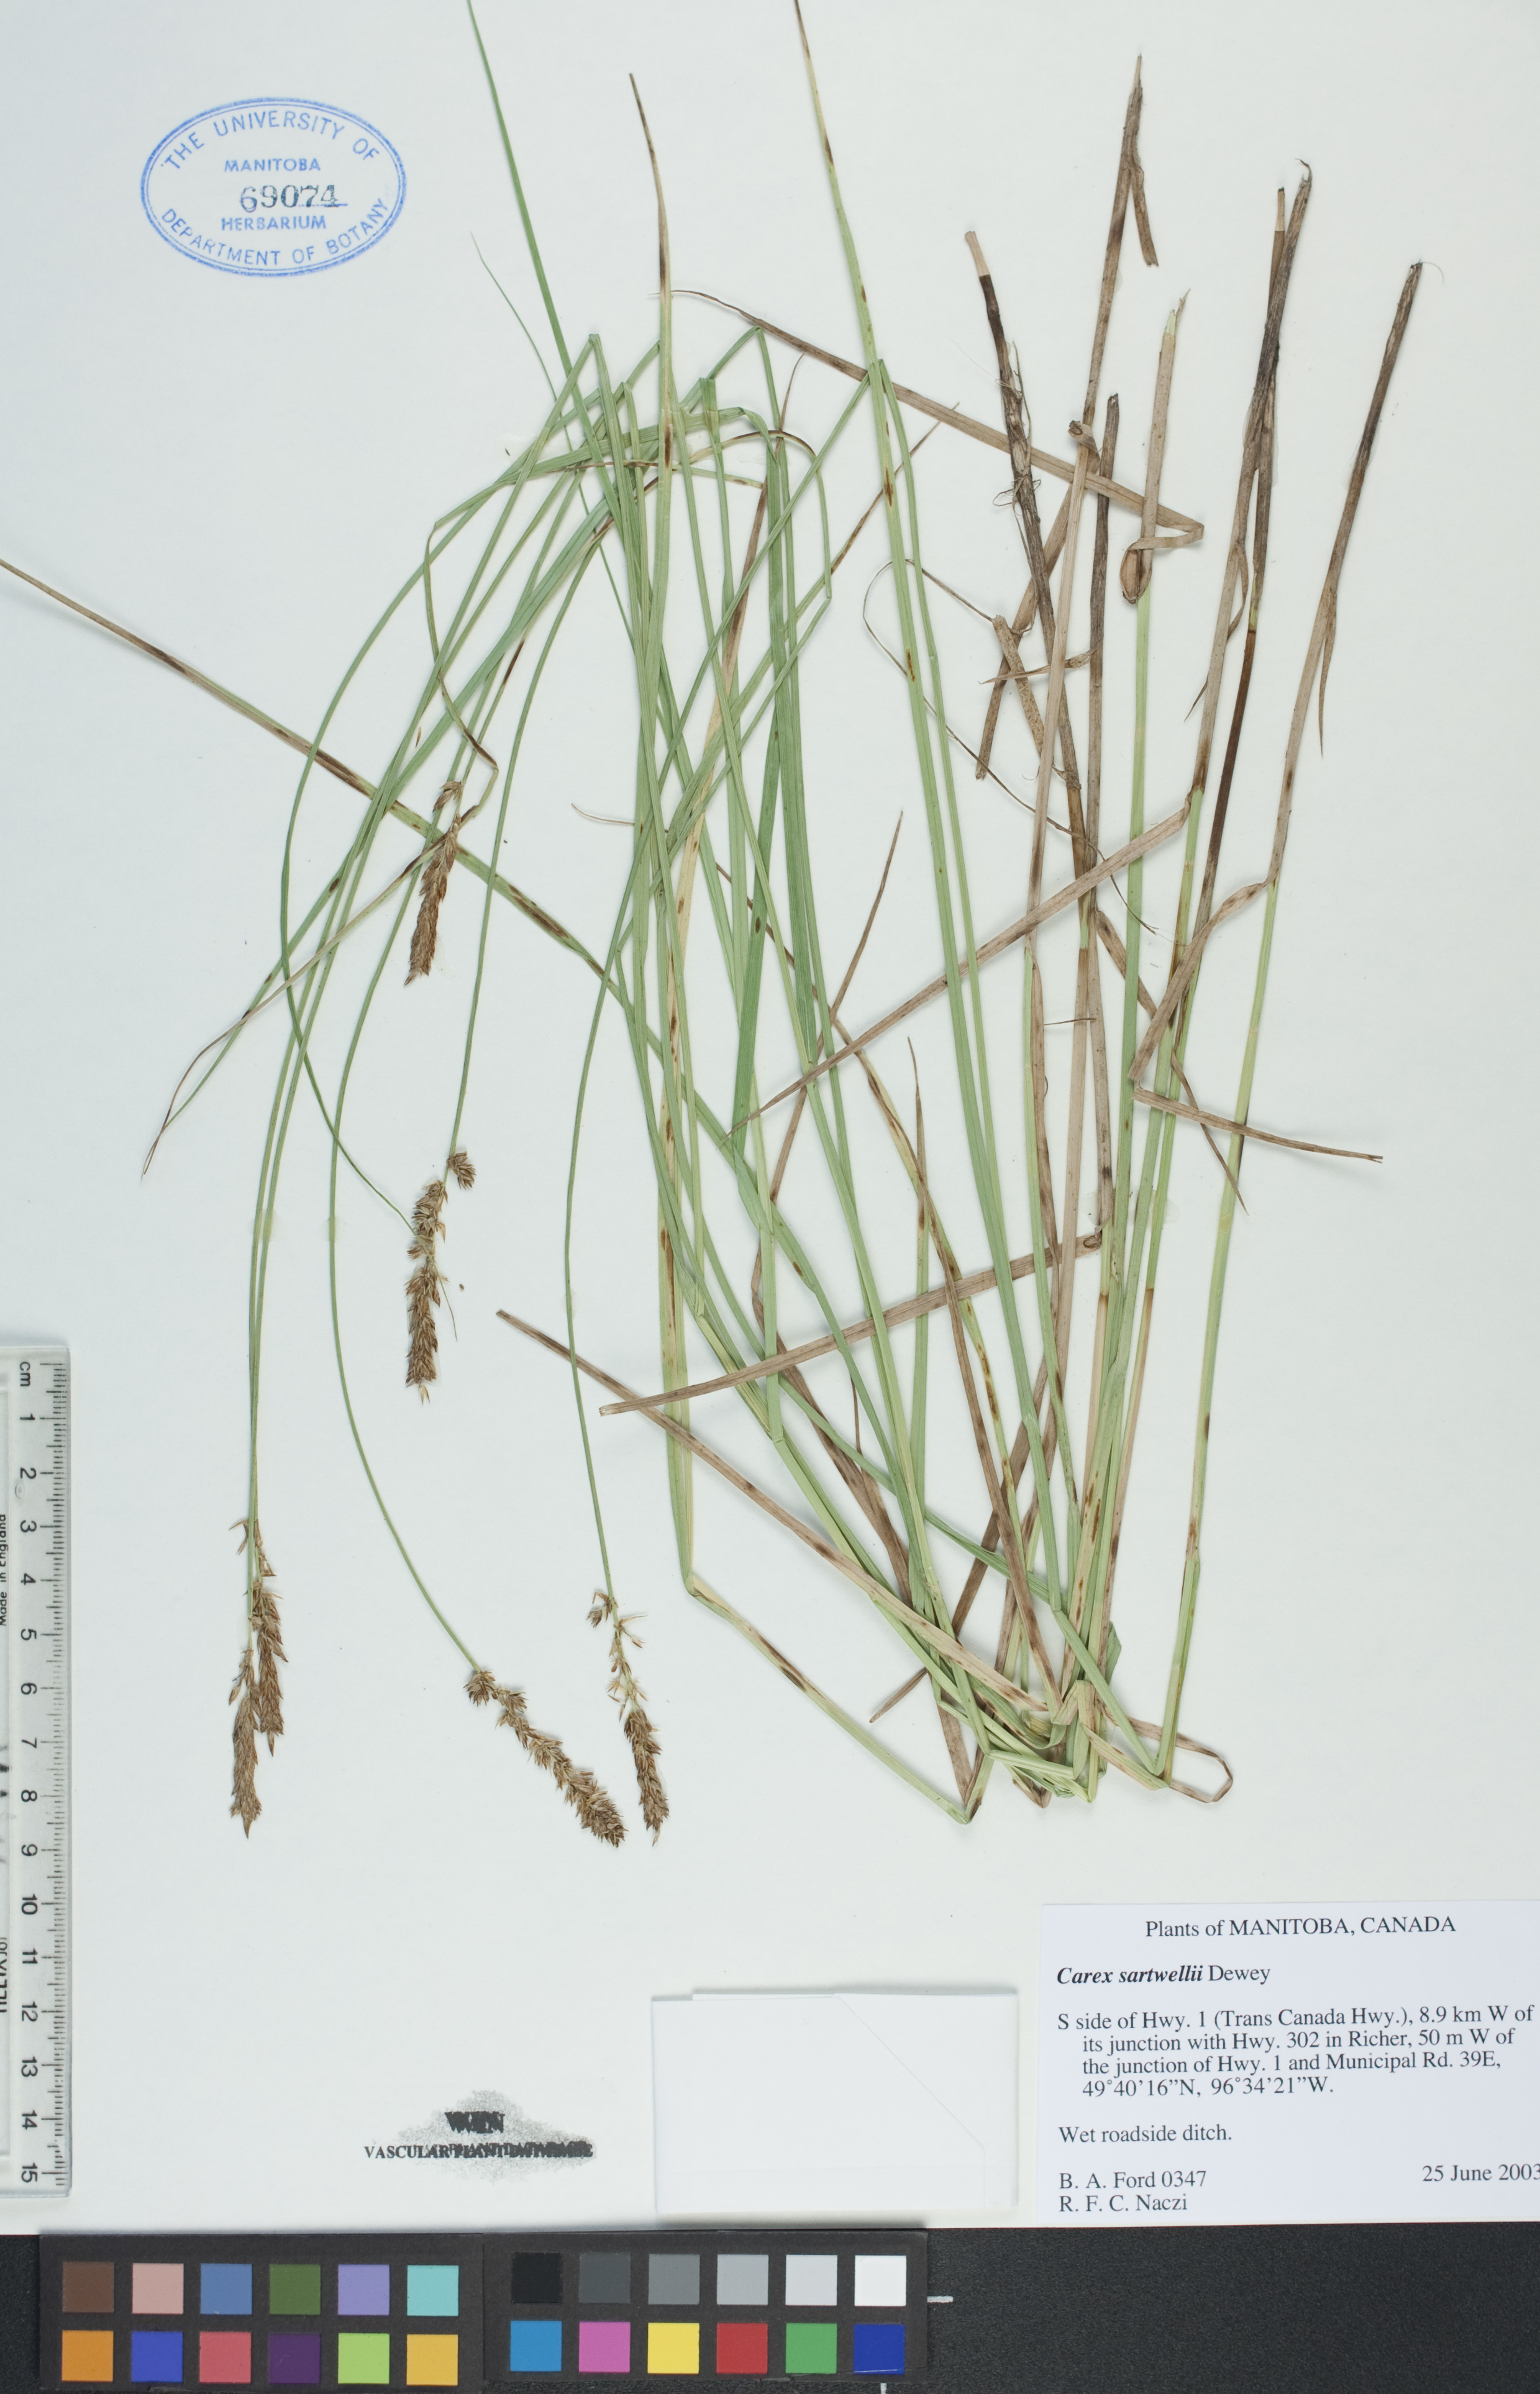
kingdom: Plantae
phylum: Tracheophyta
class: Liliopsida
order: Poales
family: Cyperaceae
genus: Carex
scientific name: Carex sartwellii
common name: Sartwell's sedge
